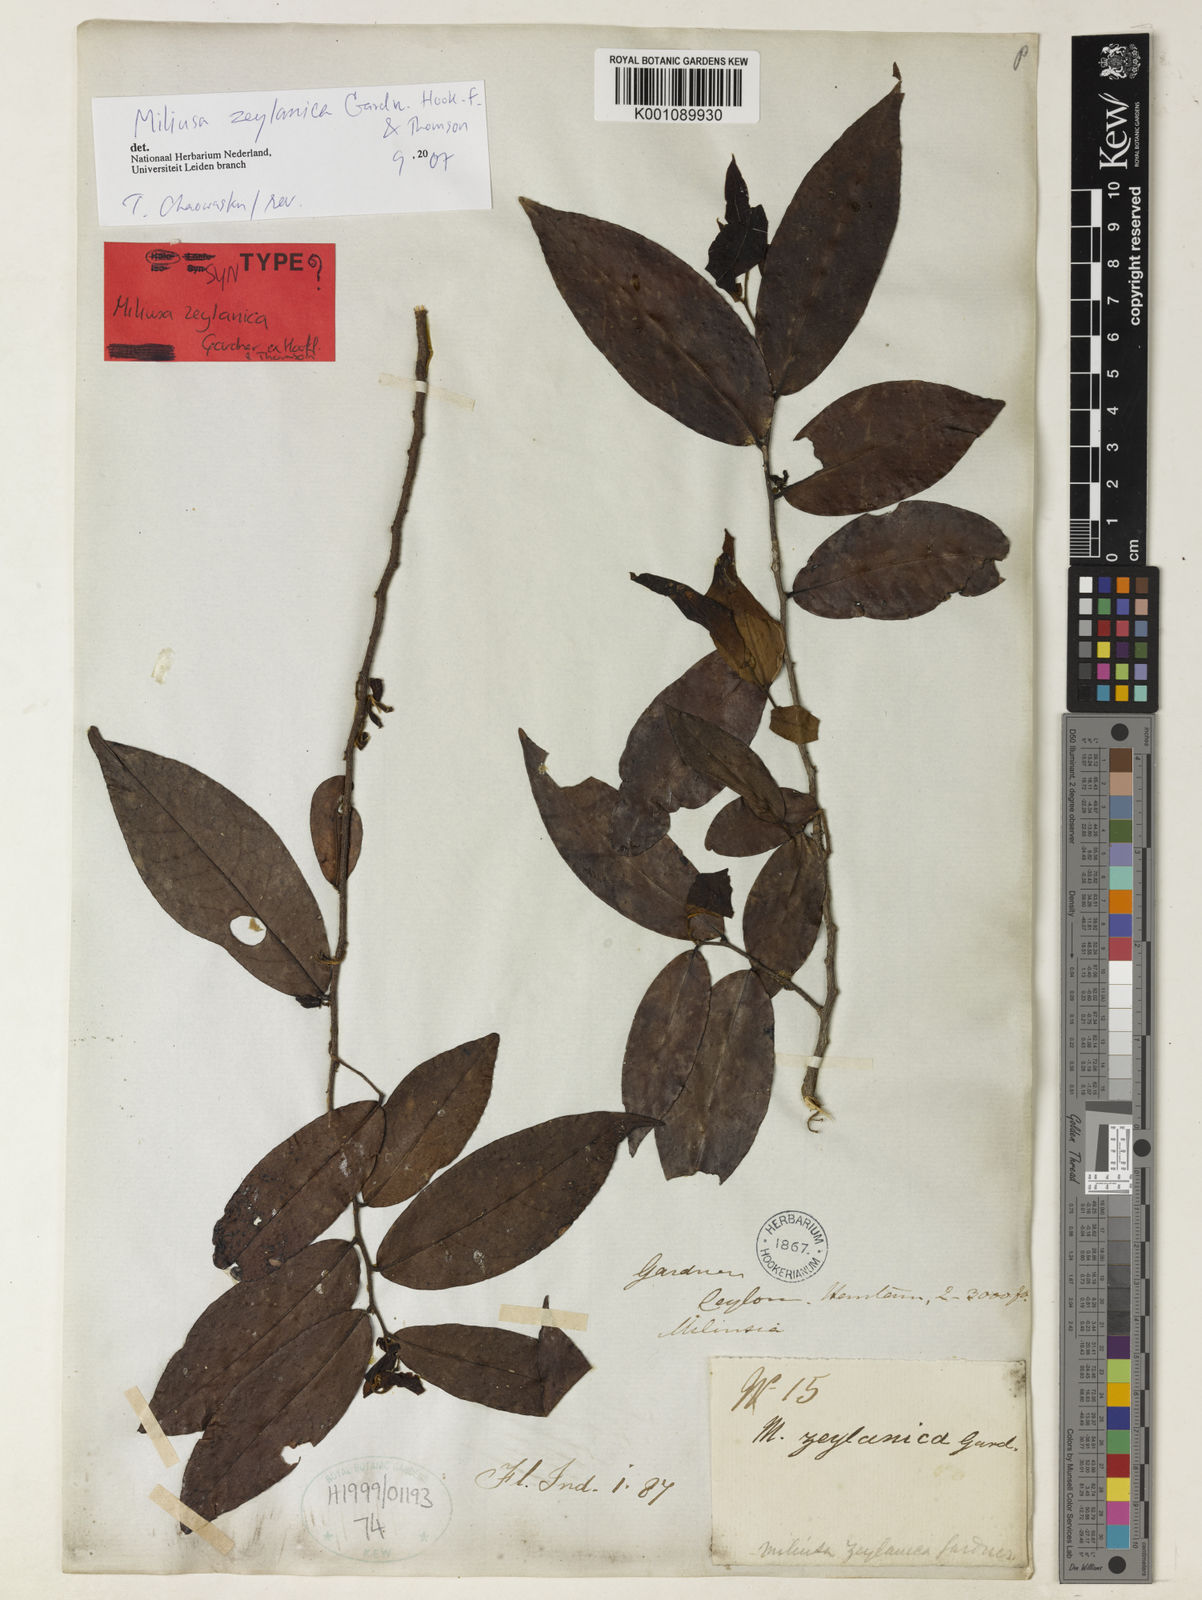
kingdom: Plantae
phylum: Tracheophyta
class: Magnoliopsida
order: Magnoliales
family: Annonaceae
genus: Miliusa
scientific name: Miliusa zeylanica
